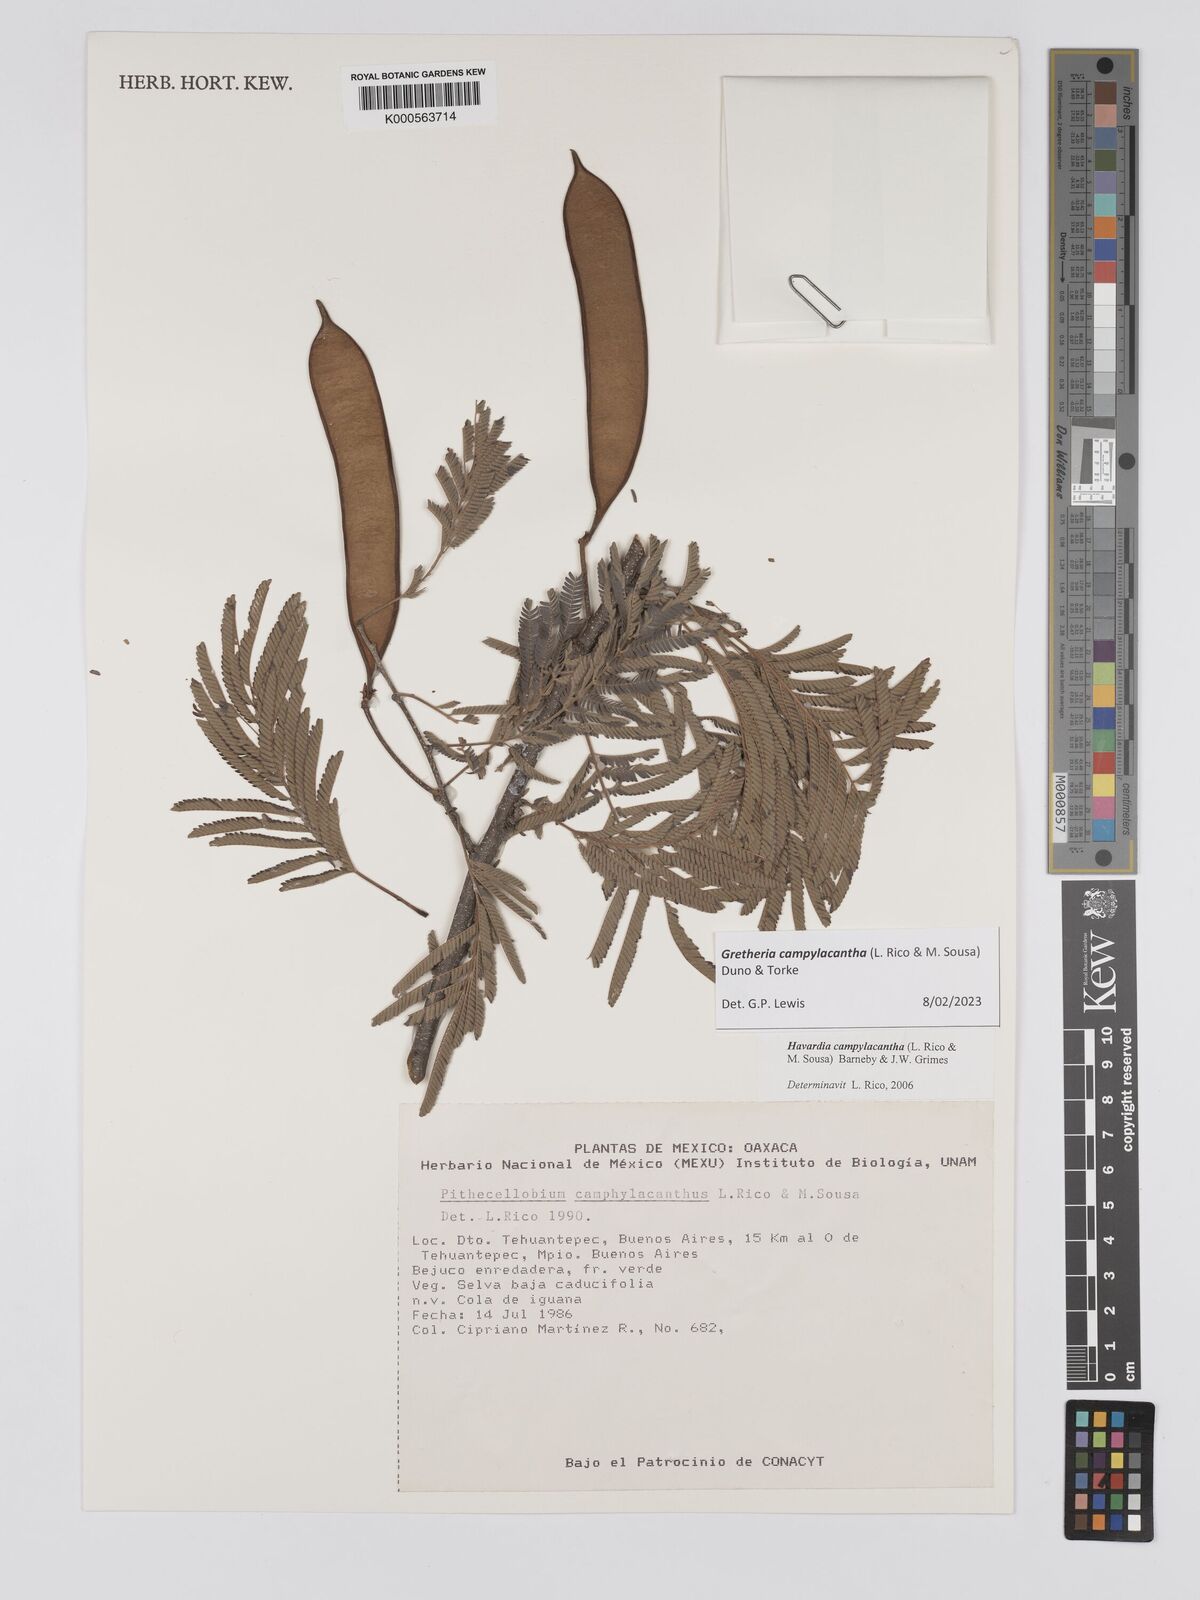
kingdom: Plantae
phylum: Tracheophyta
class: Magnoliopsida
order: Fabales
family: Fabaceae
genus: Havardia
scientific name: Havardia campylacantha
